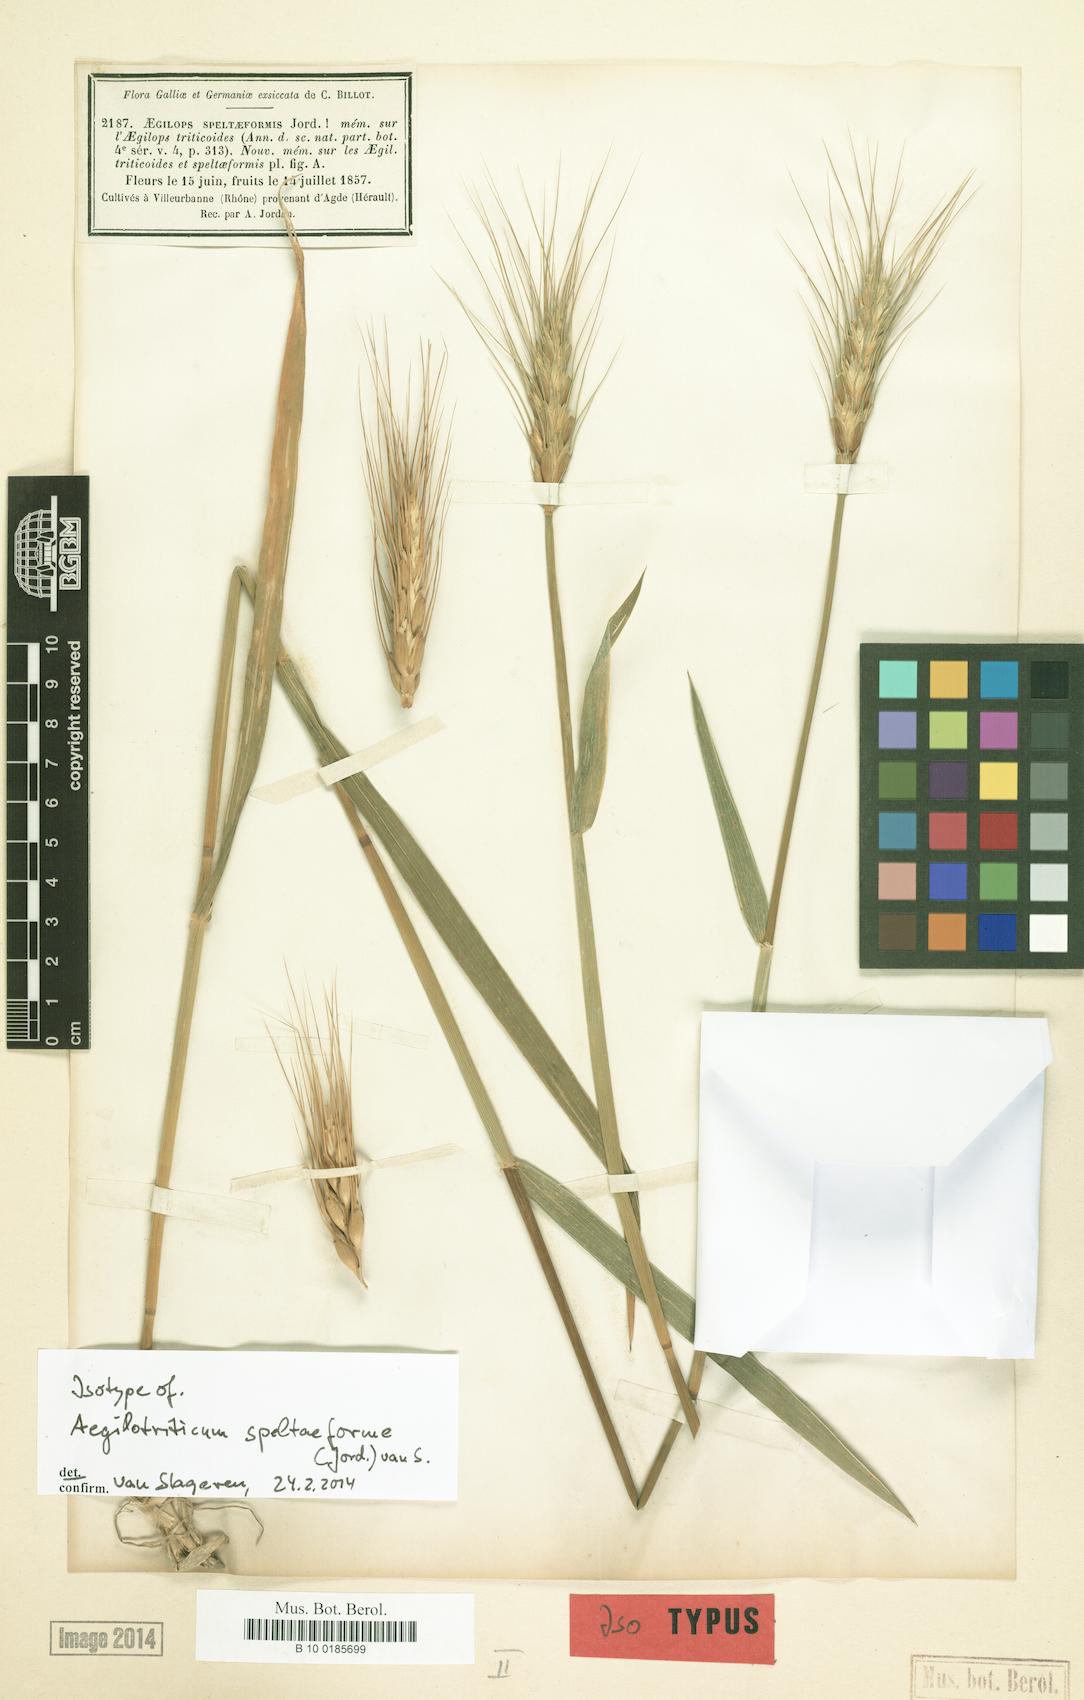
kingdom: Plantae
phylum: Tracheophyta
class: Liliopsida
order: Poales
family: Poaceae
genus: Aegilotriticum
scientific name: Aegilotriticum triticoides
